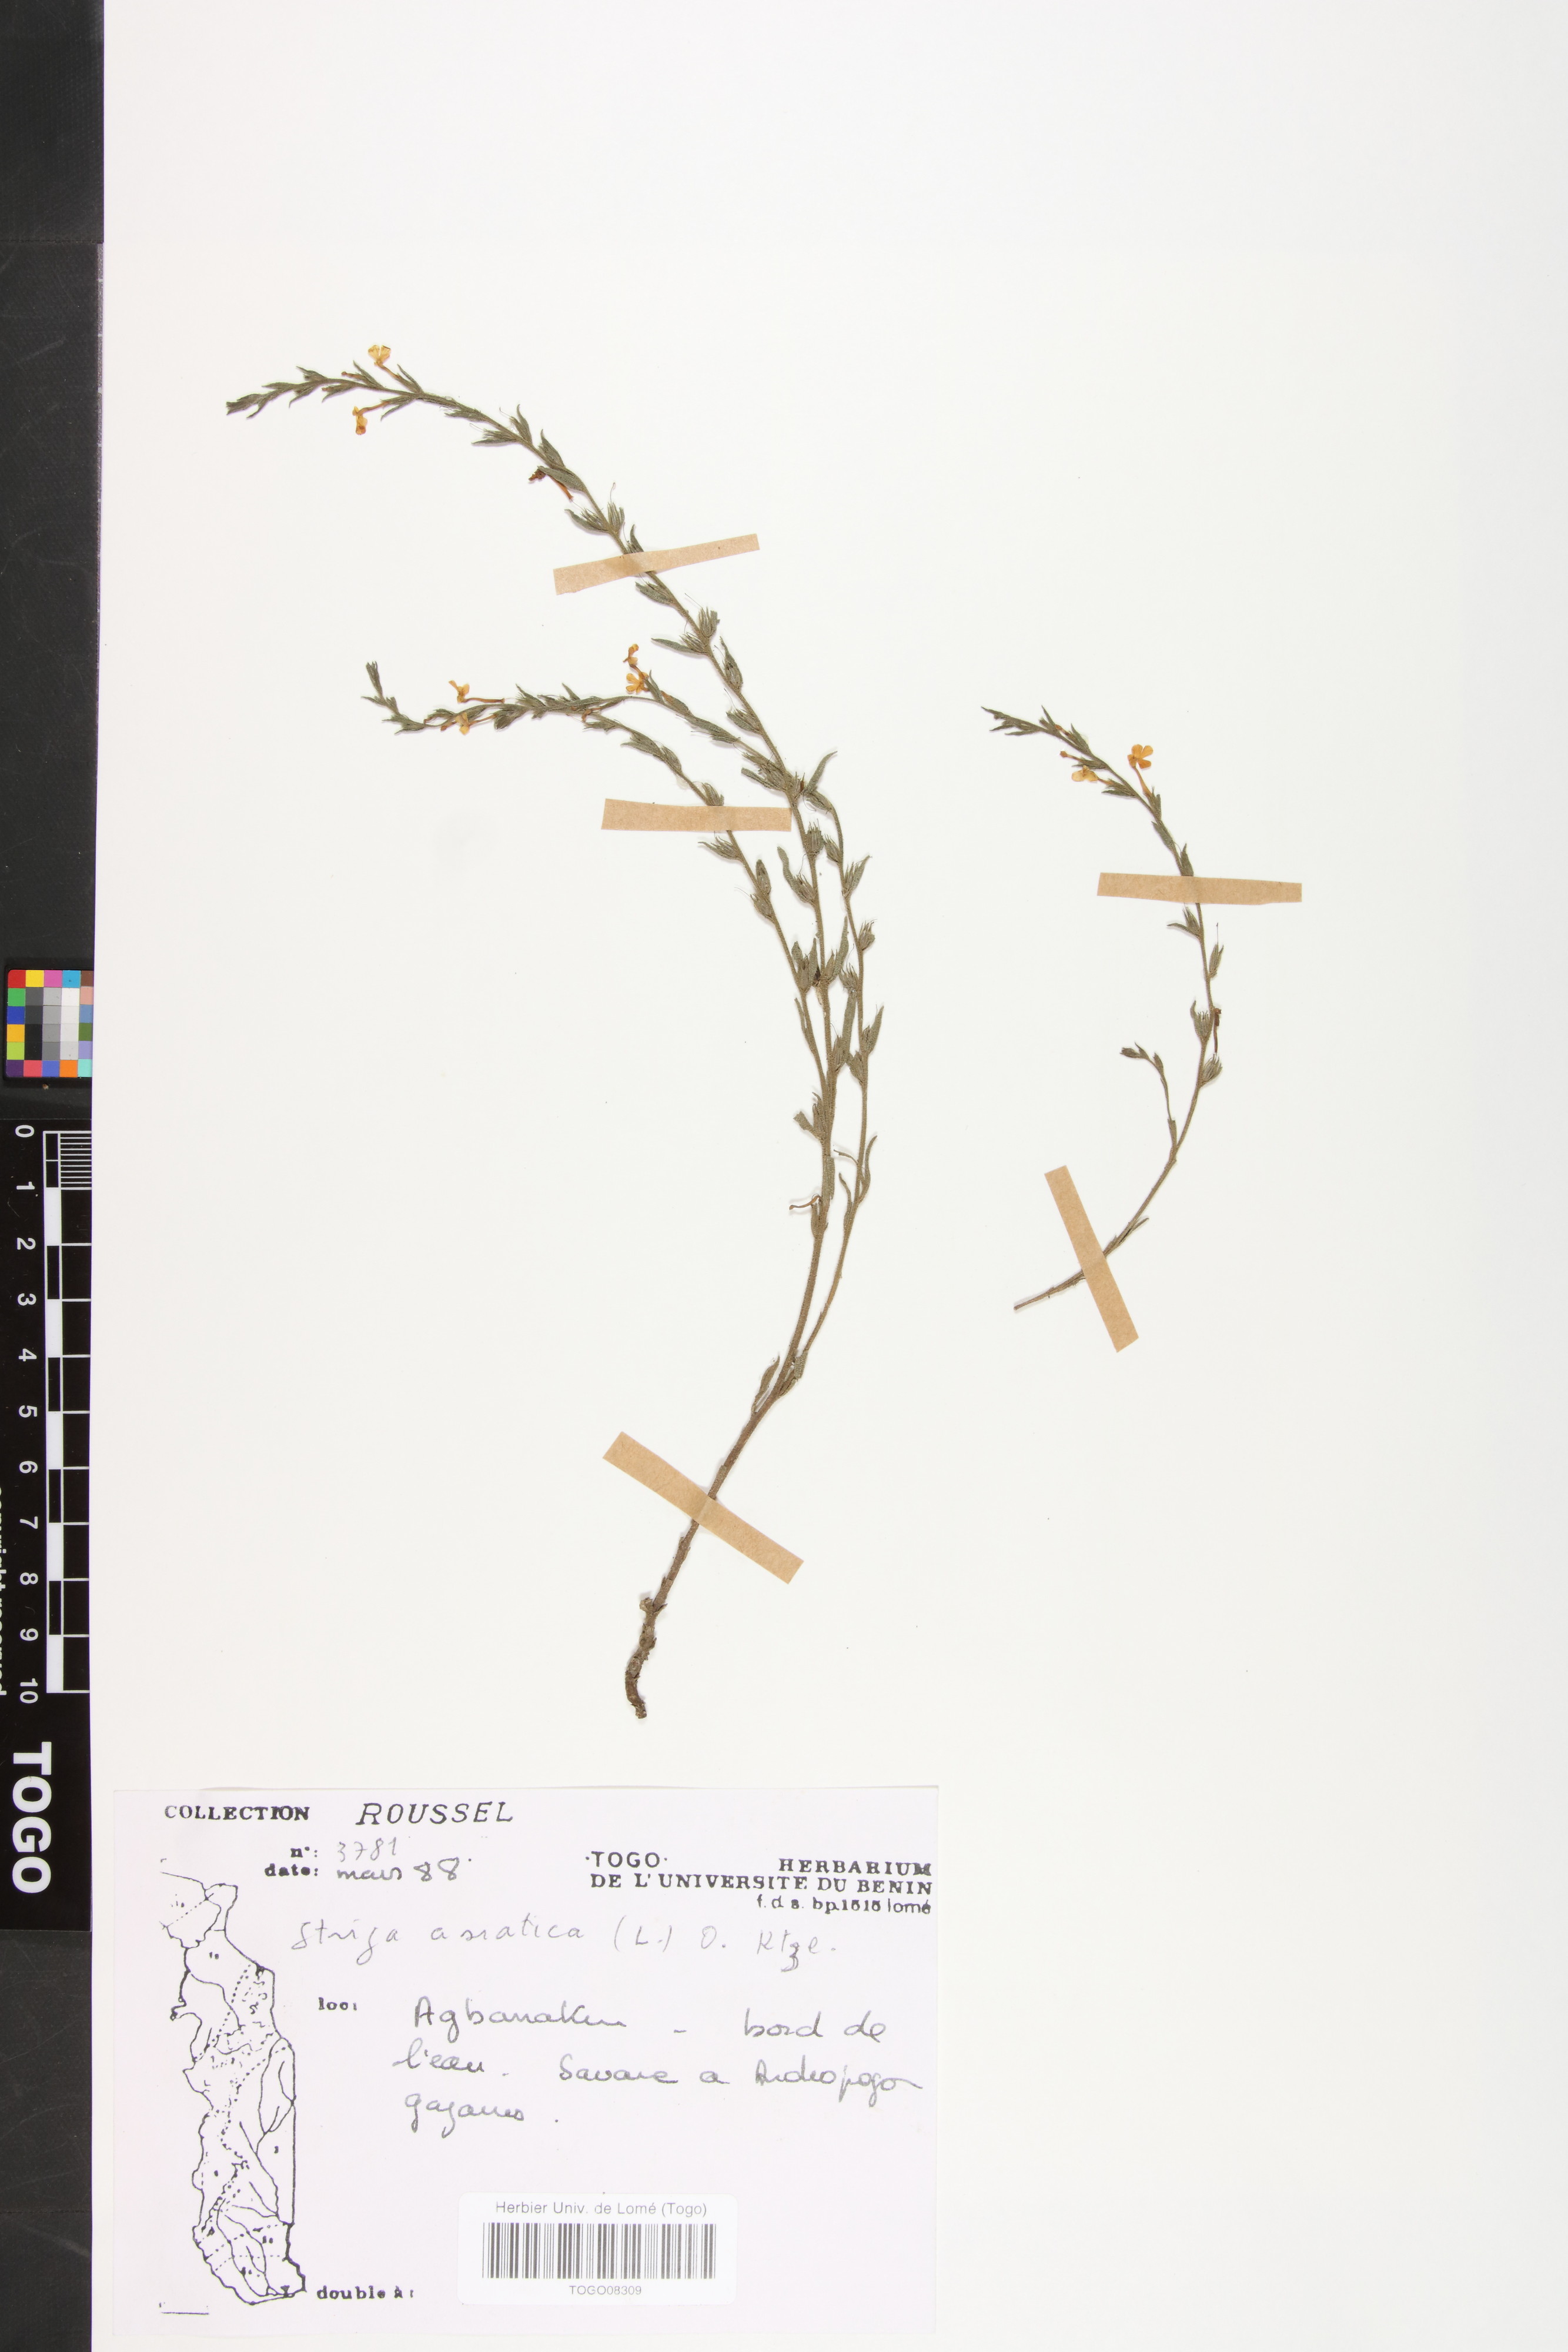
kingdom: Plantae
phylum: Tracheophyta
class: Magnoliopsida
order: Lamiales
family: Orobanchaceae
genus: Striga
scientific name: Striga asiatica
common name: Asiatic witchweed
